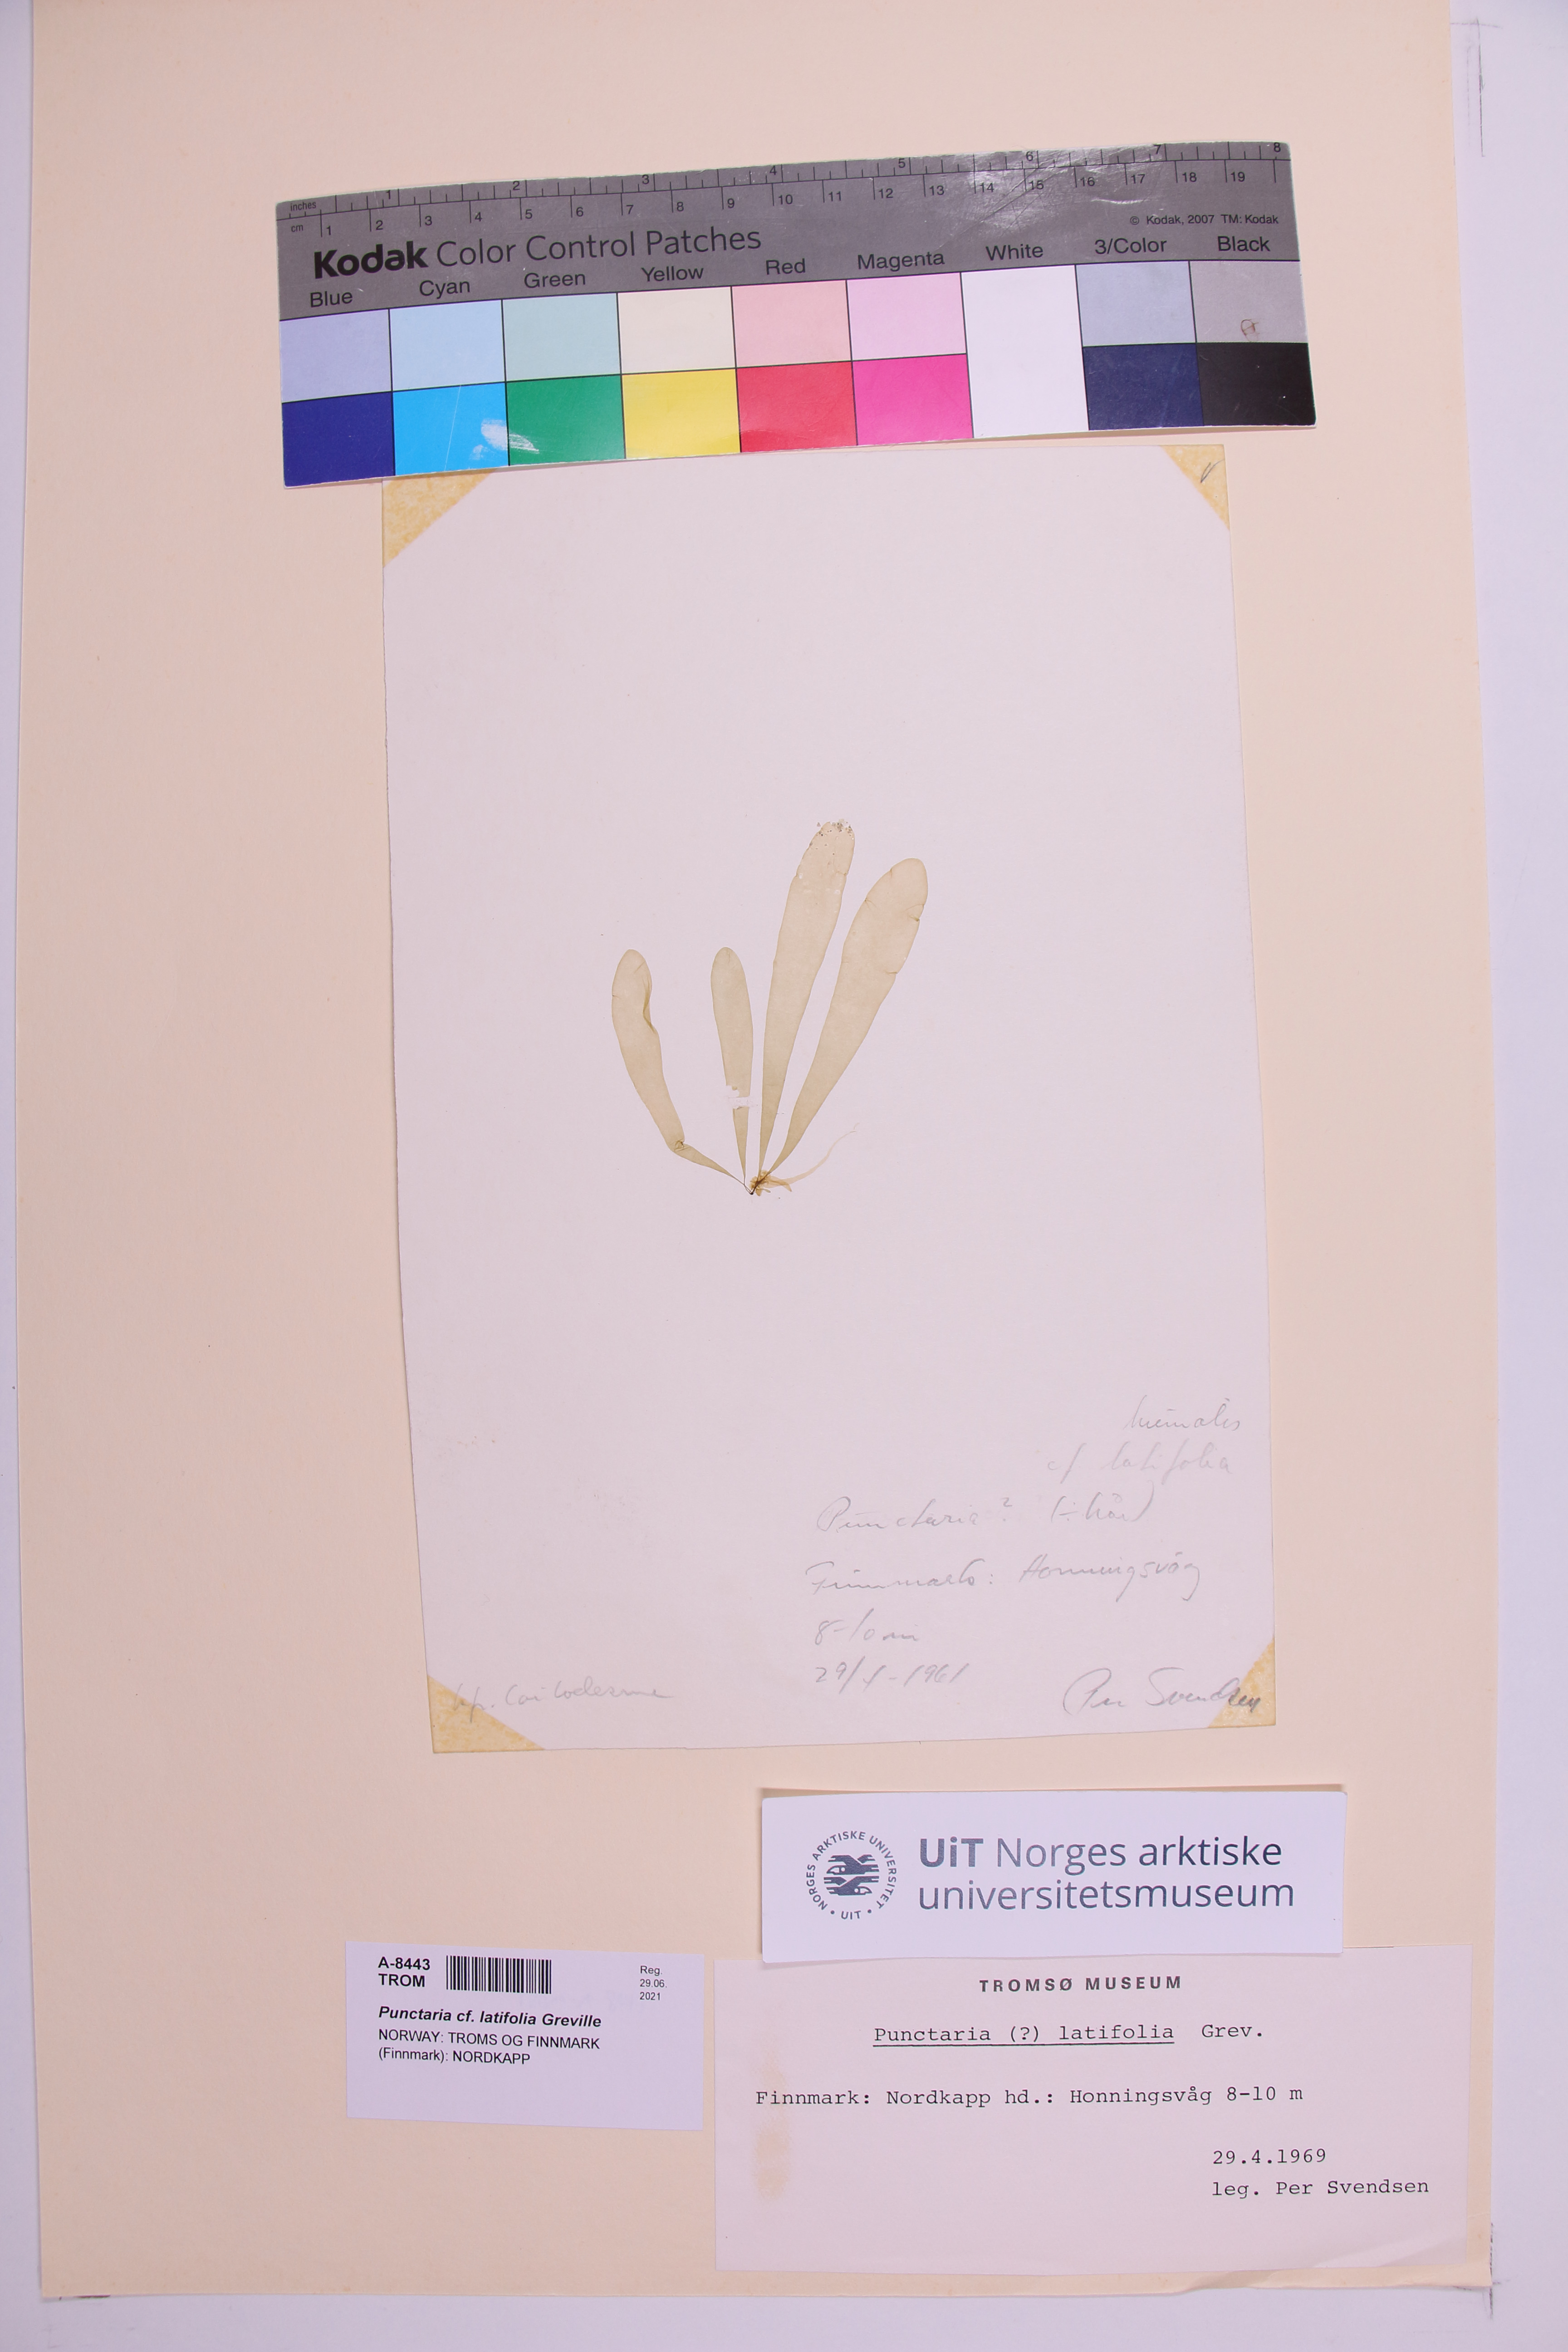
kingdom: Chromista
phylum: Ochrophyta
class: Phaeophyceae
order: Ectocarpales
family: Chordariaceae
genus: Punctaria
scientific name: Punctaria latifolia
